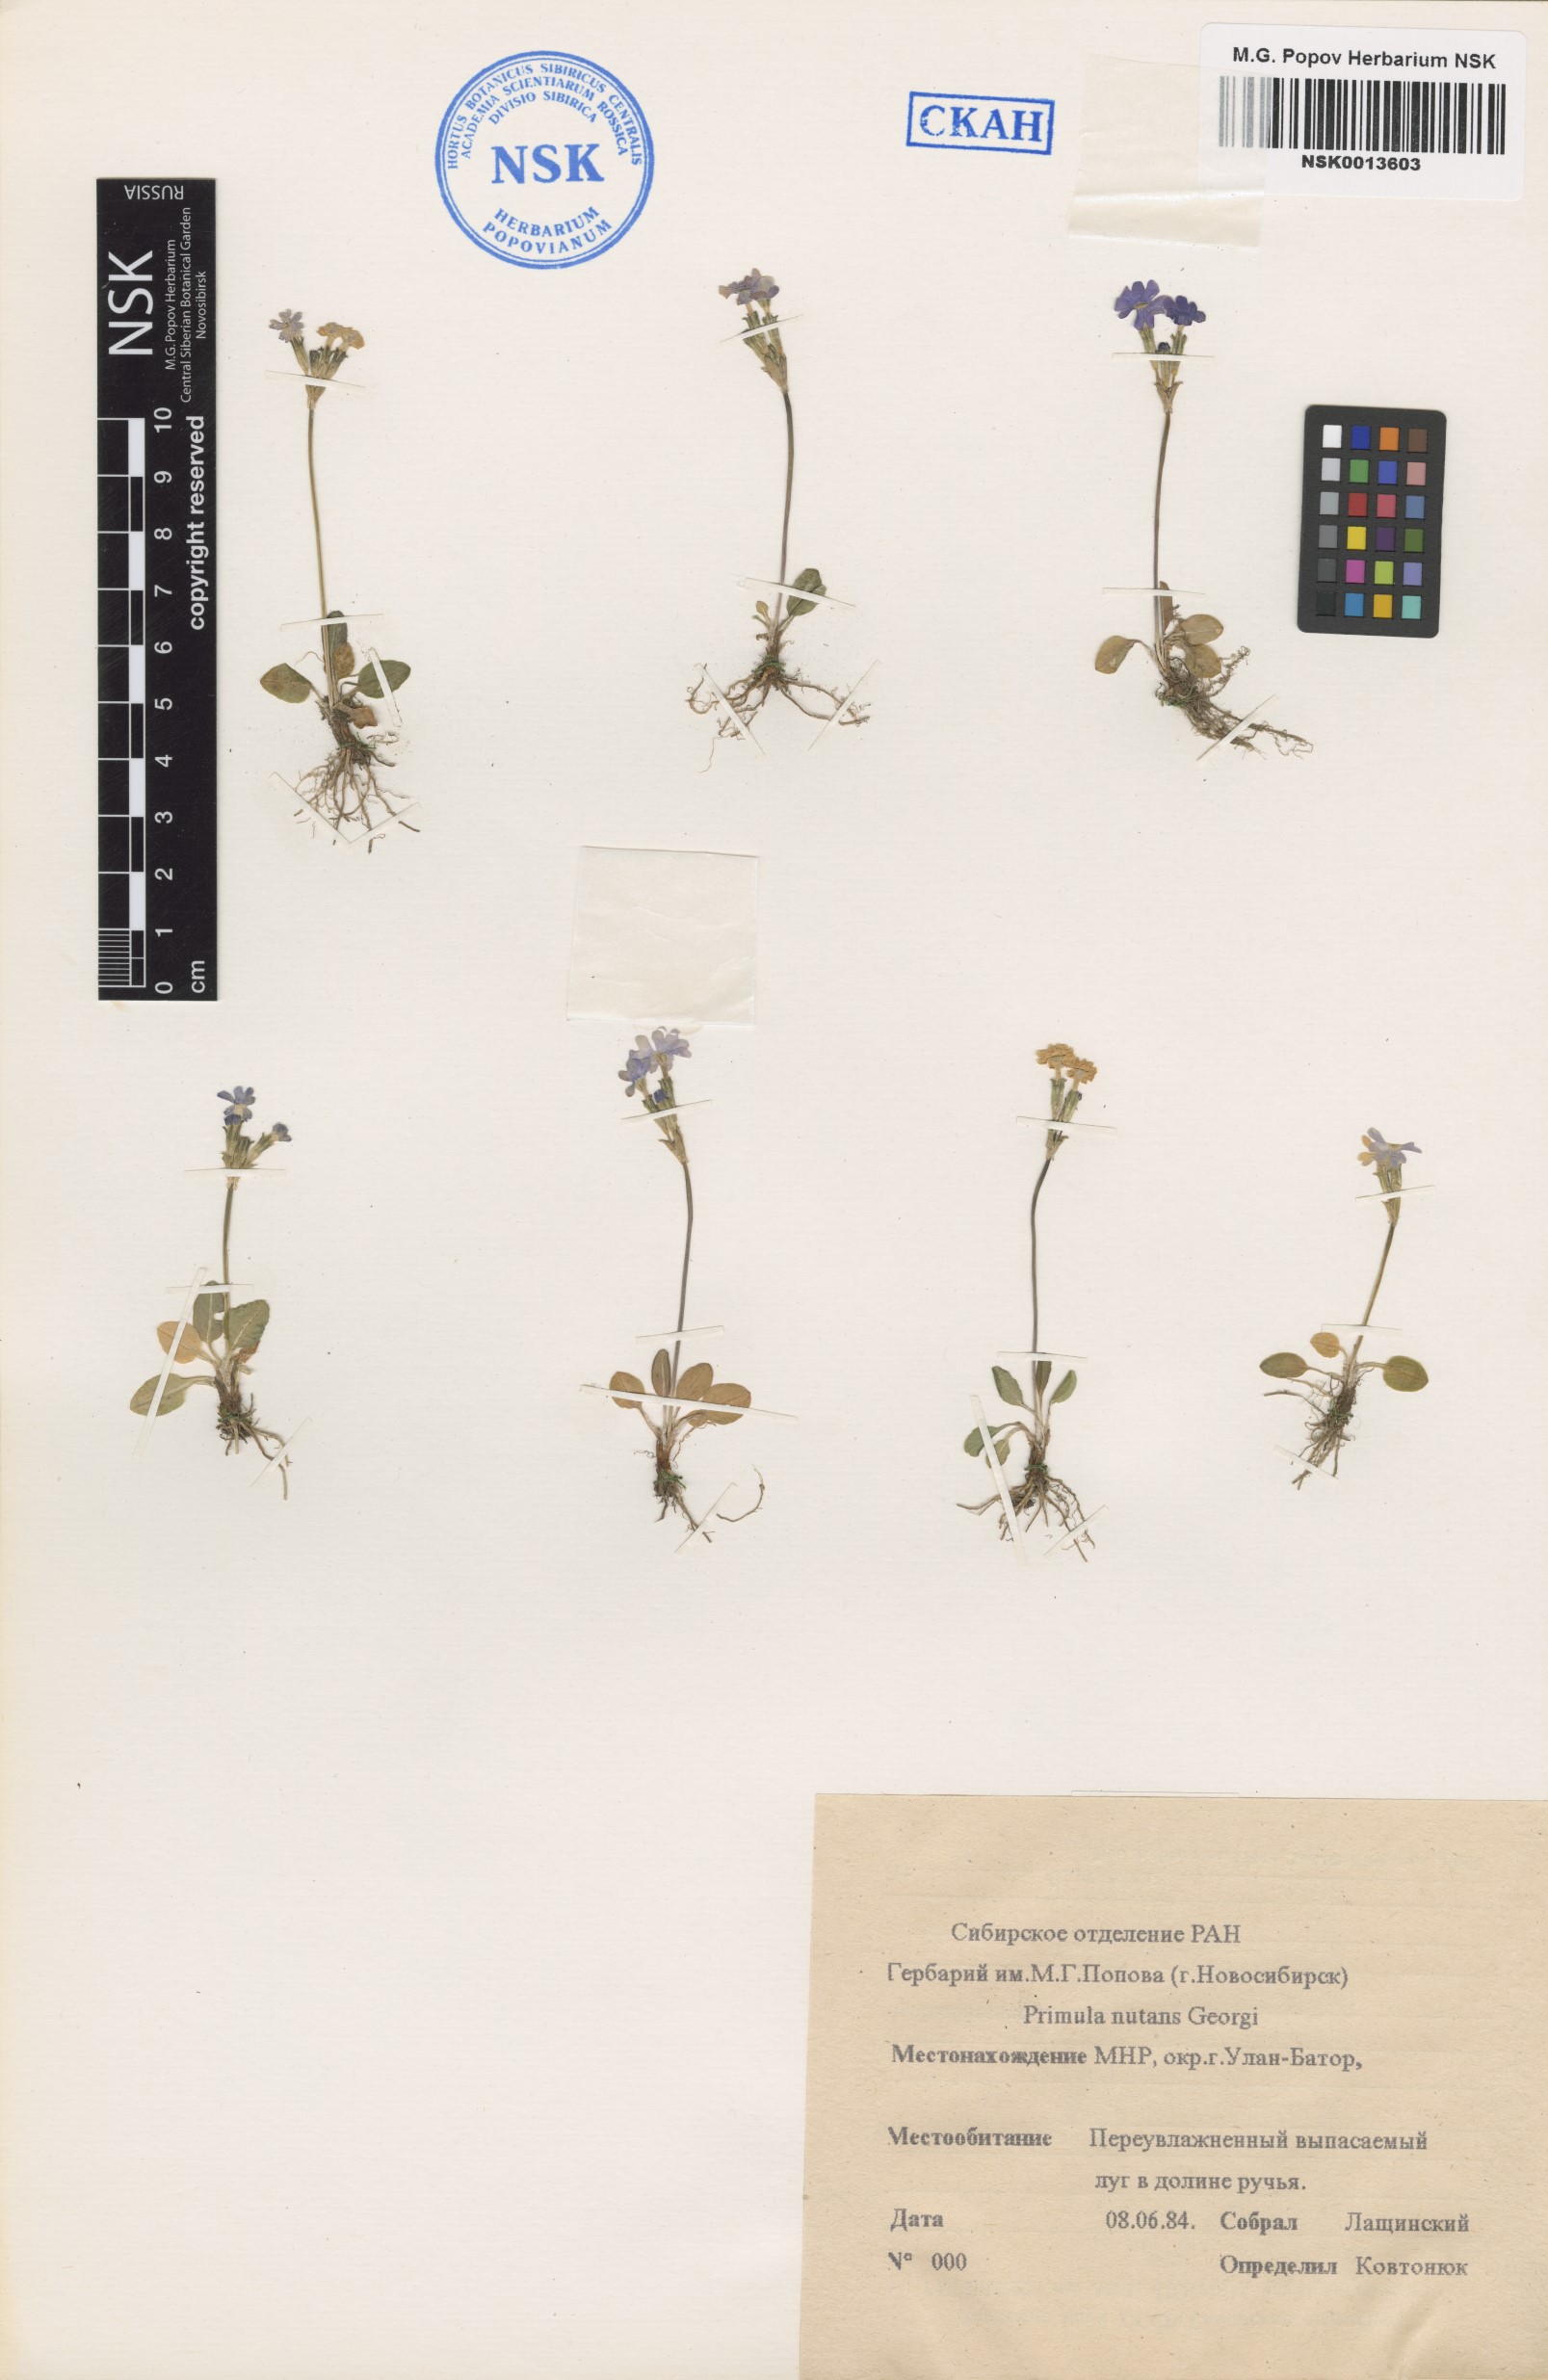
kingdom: Plantae
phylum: Tracheophyta
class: Magnoliopsida
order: Ericales
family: Primulaceae
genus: Primula
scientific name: Primula nutans
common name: Siberian primrose
